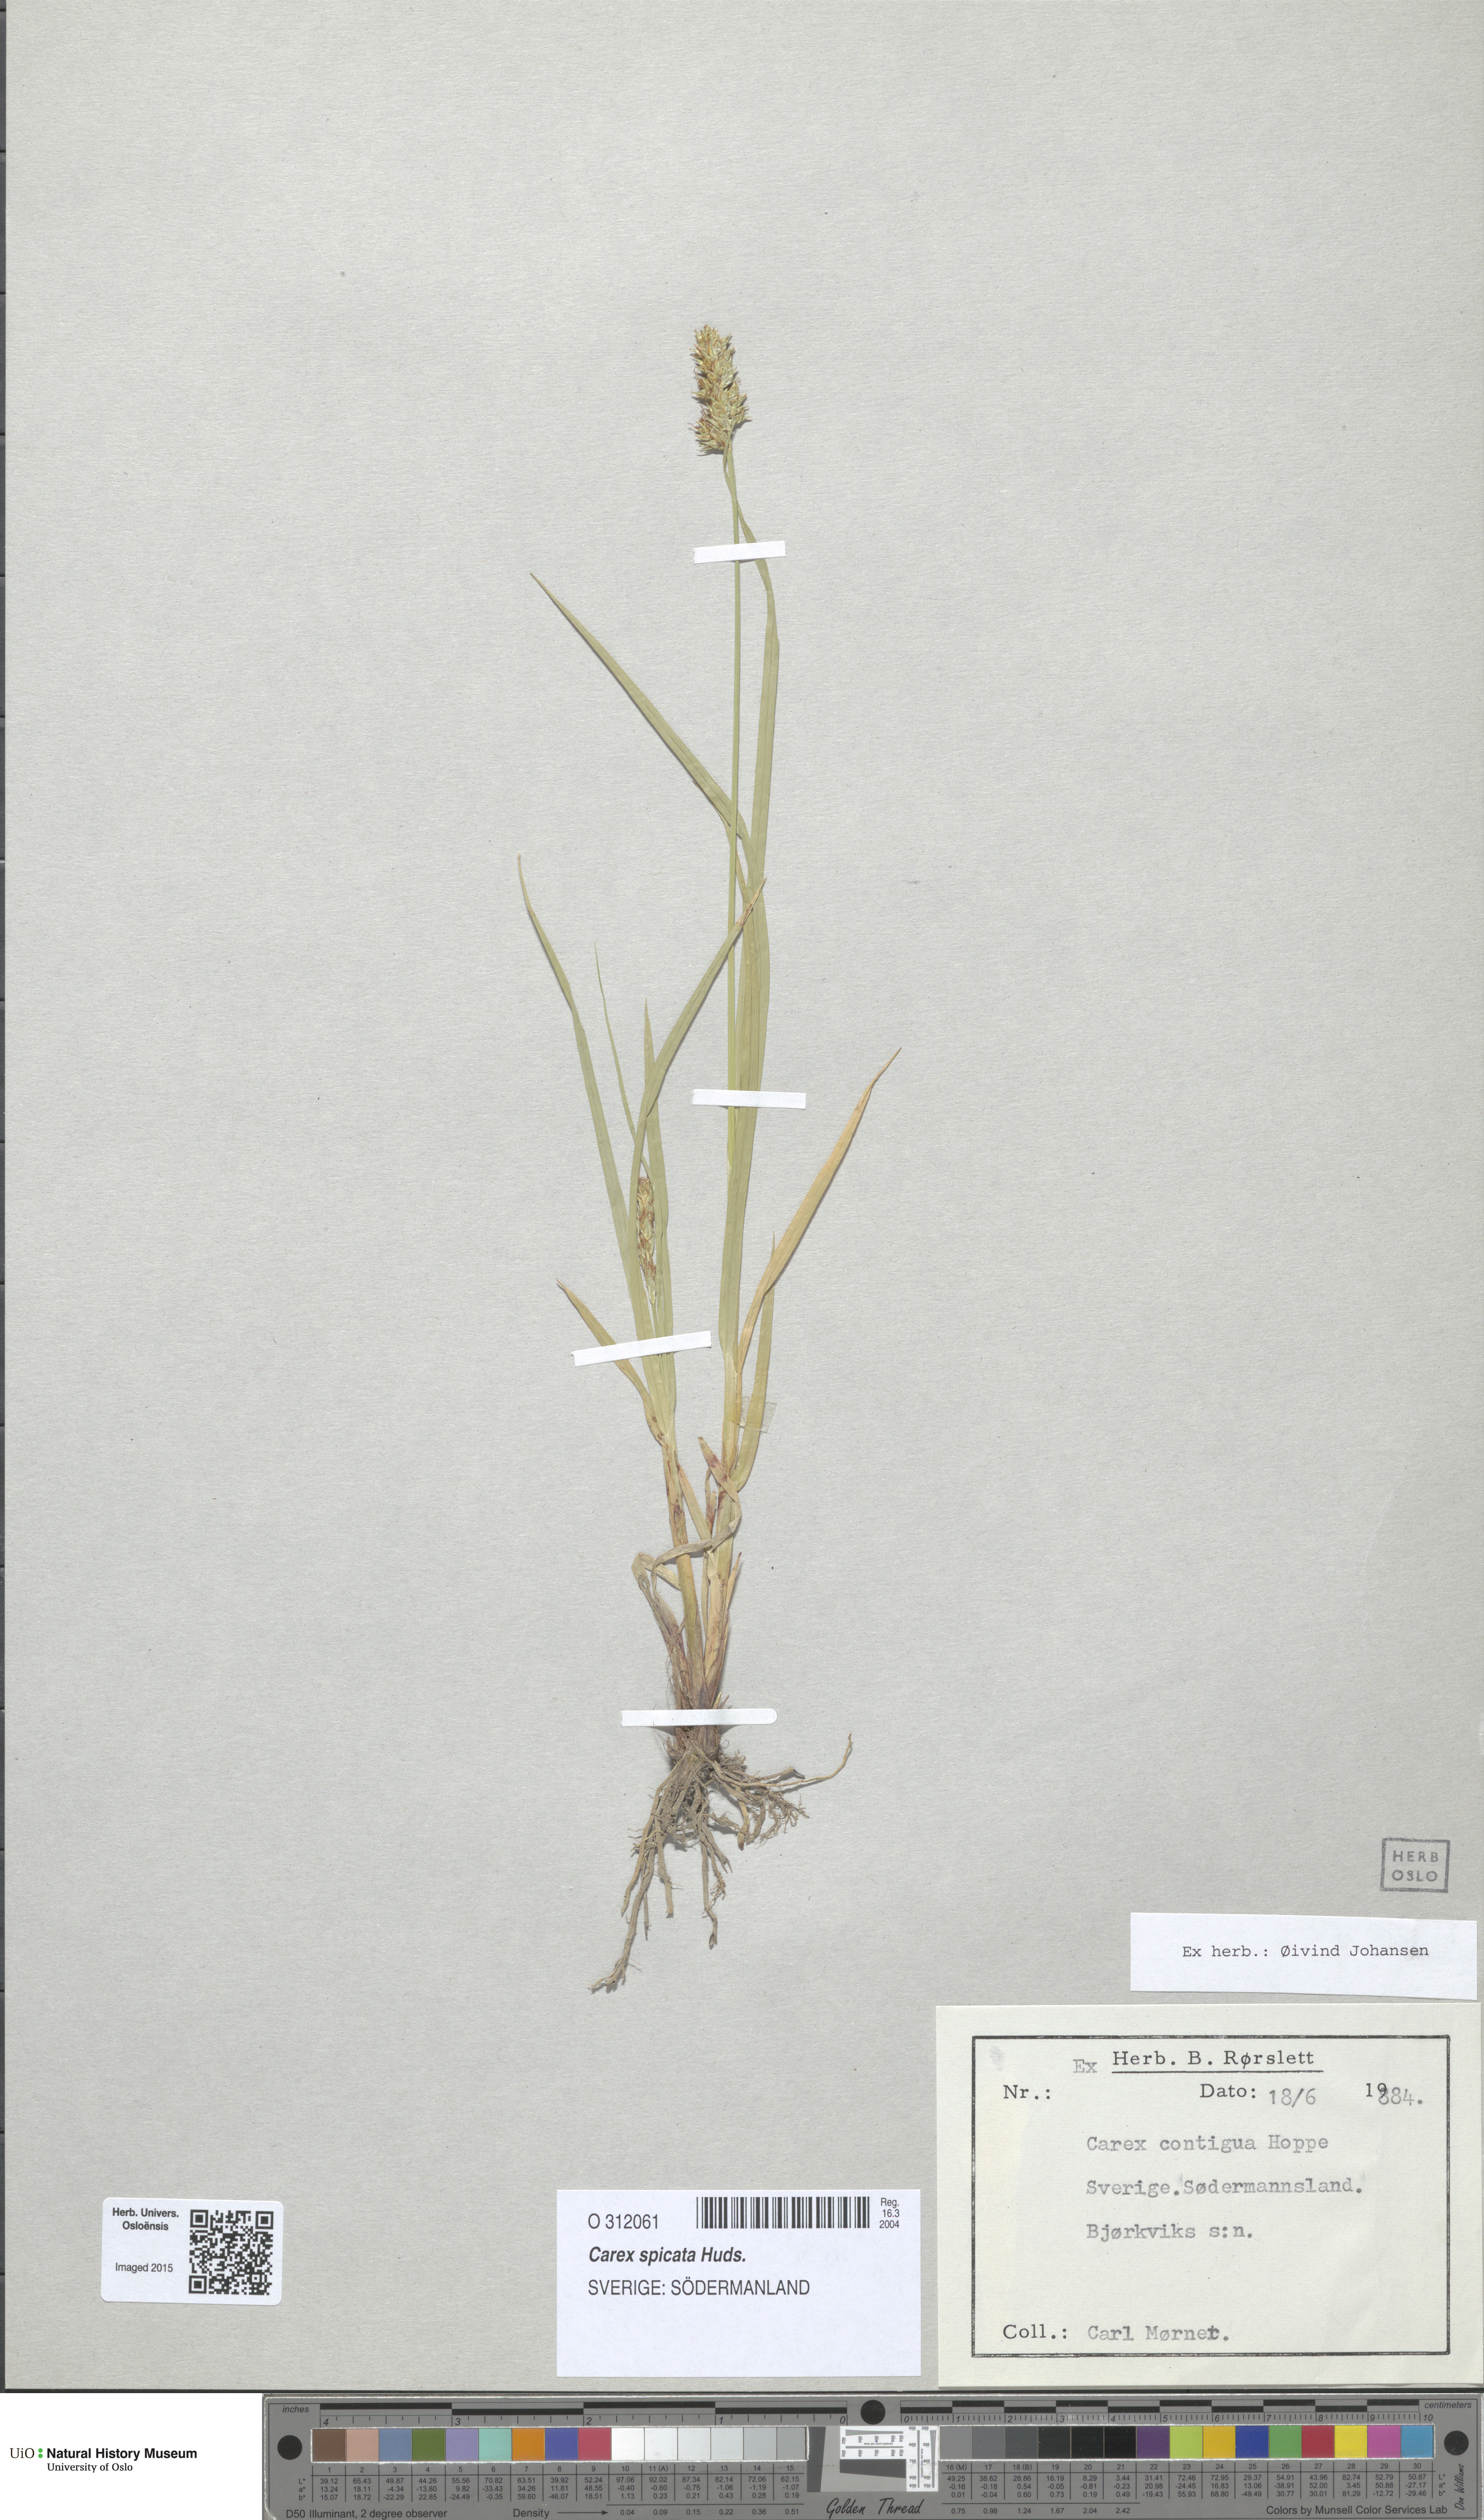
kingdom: Plantae
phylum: Tracheophyta
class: Liliopsida
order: Poales
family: Cyperaceae
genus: Carex
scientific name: Carex spicata
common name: Spiked sedge
